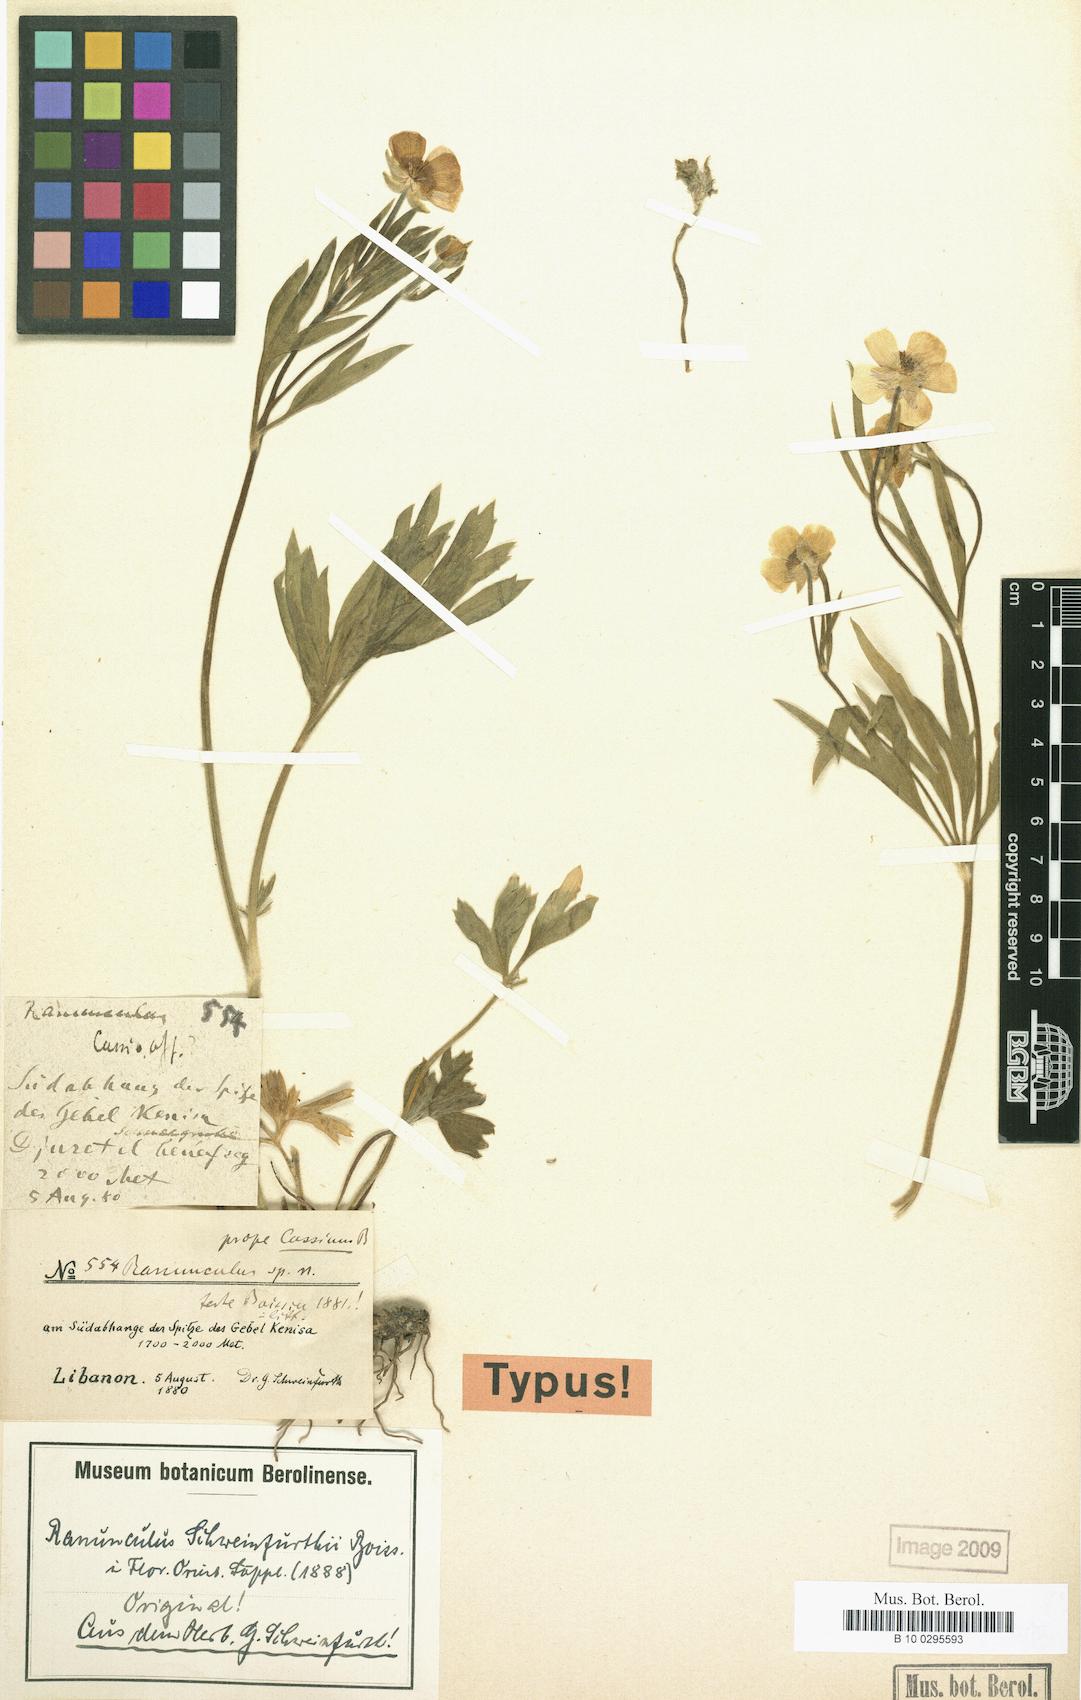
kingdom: Plantae
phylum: Tracheophyta
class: Magnoliopsida
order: Ranunculales
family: Ranunculaceae
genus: Ranunculus
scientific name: Ranunculus schweinfurthii
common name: Schweinfurth buttercup
